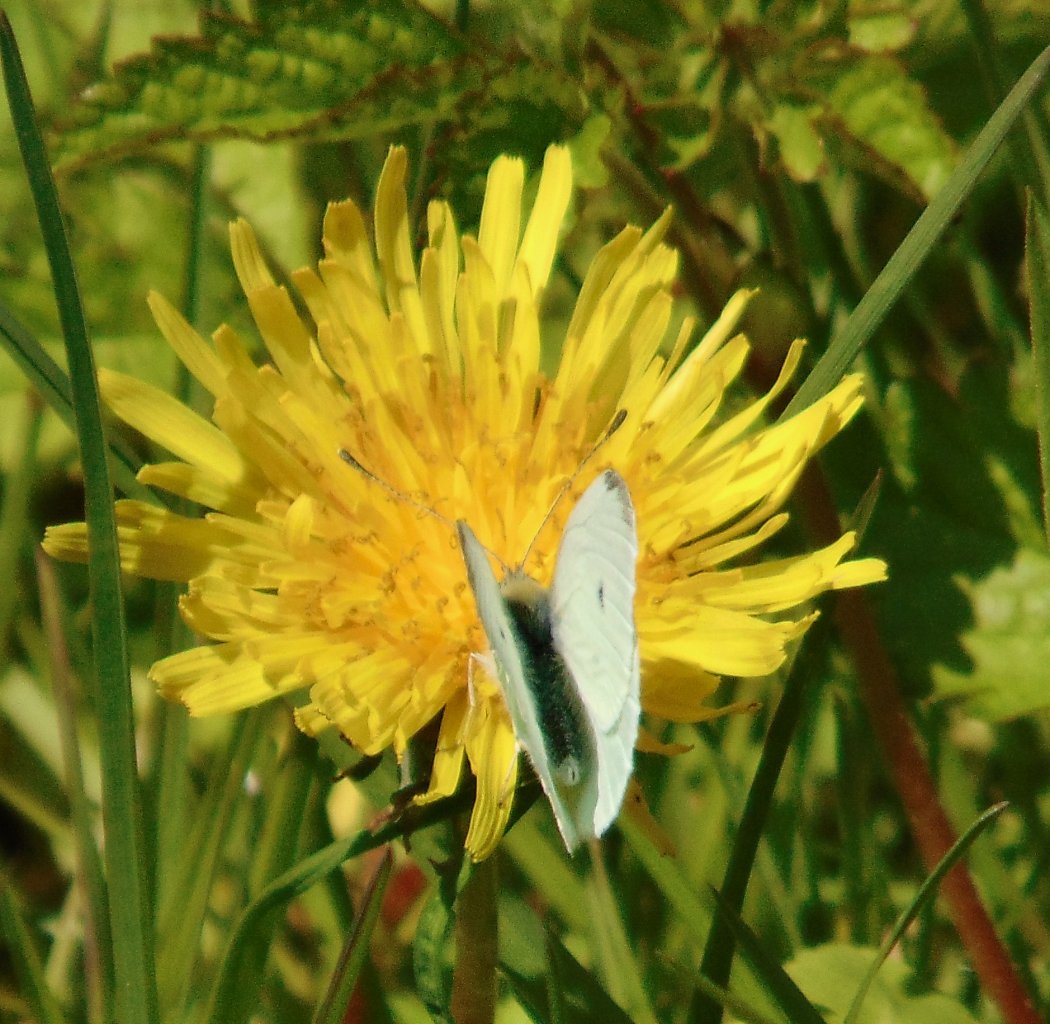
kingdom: Animalia
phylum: Arthropoda
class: Insecta
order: Lepidoptera
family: Pieridae
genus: Pieris
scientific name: Pieris rapae
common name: Cabbage White
